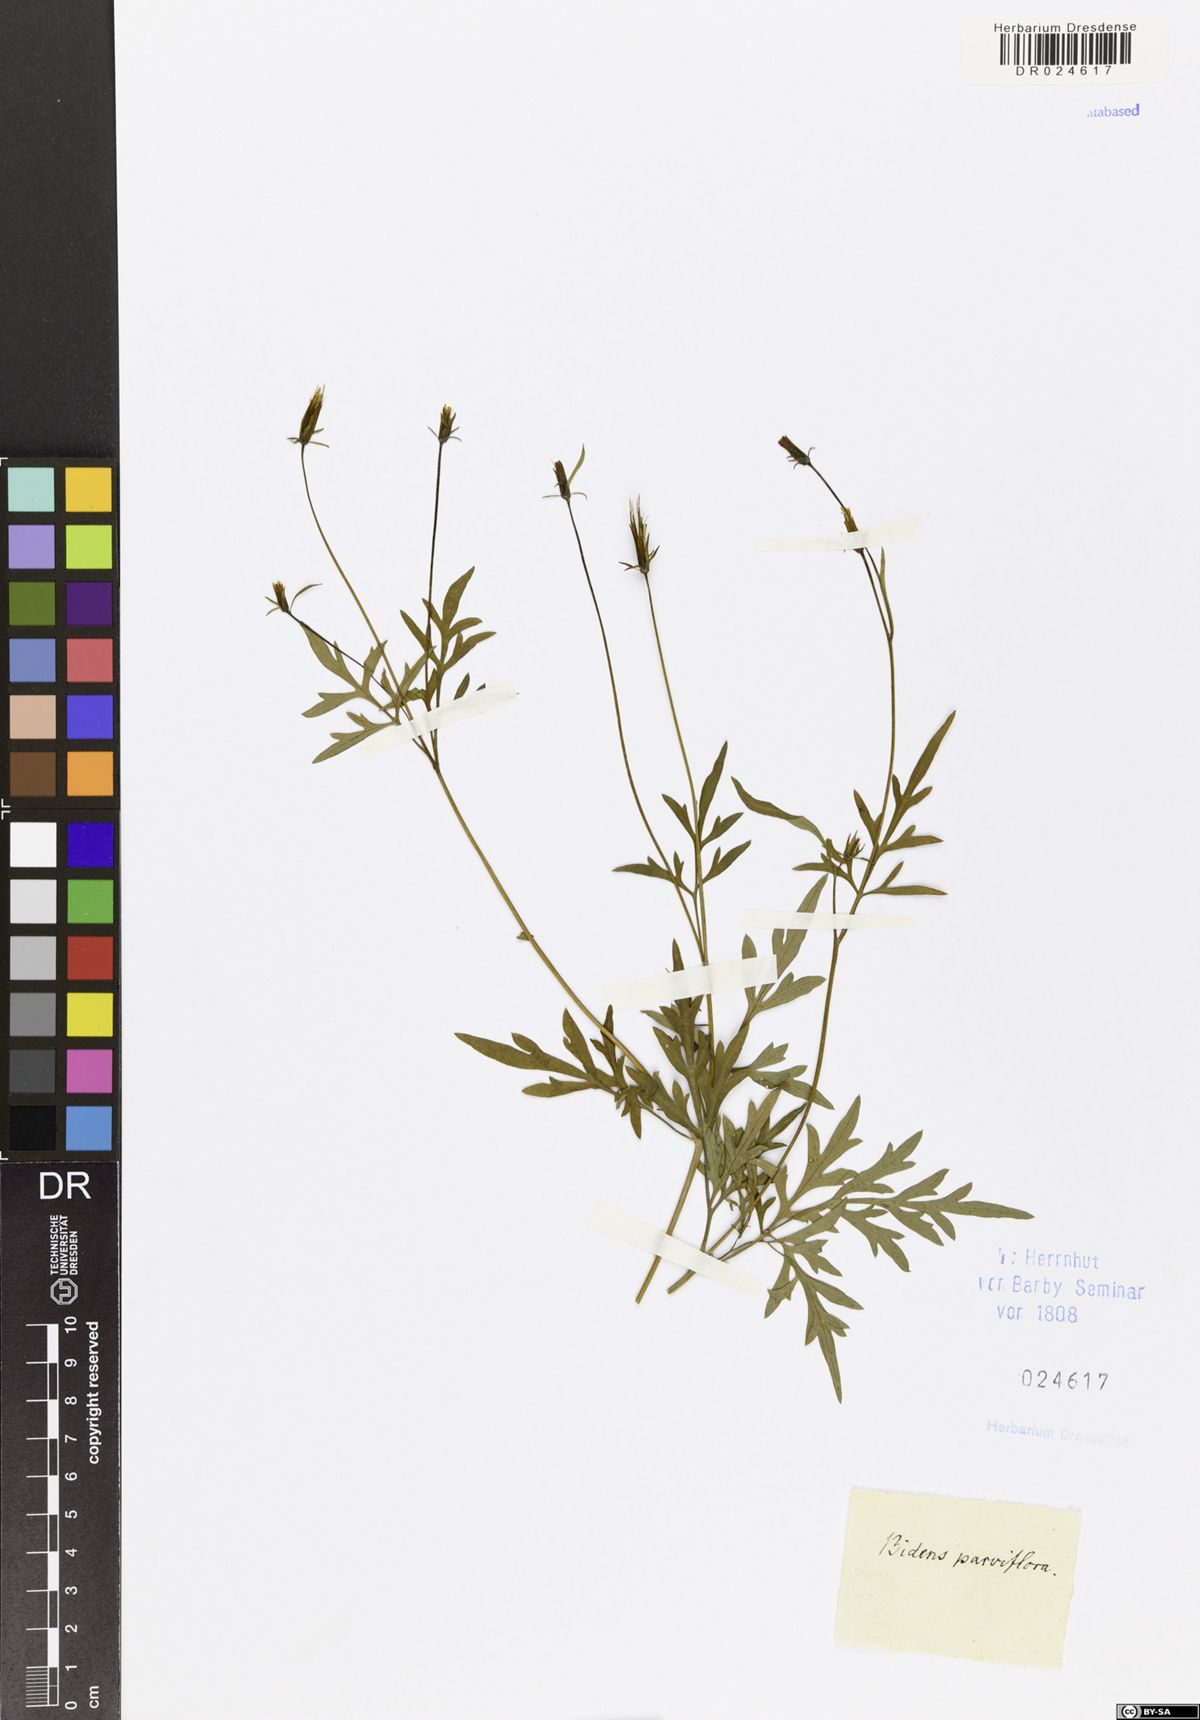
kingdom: Plantae
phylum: Tracheophyta
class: Magnoliopsida
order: Asterales
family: Asteraceae
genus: Bidens
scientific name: Bidens parviflora
